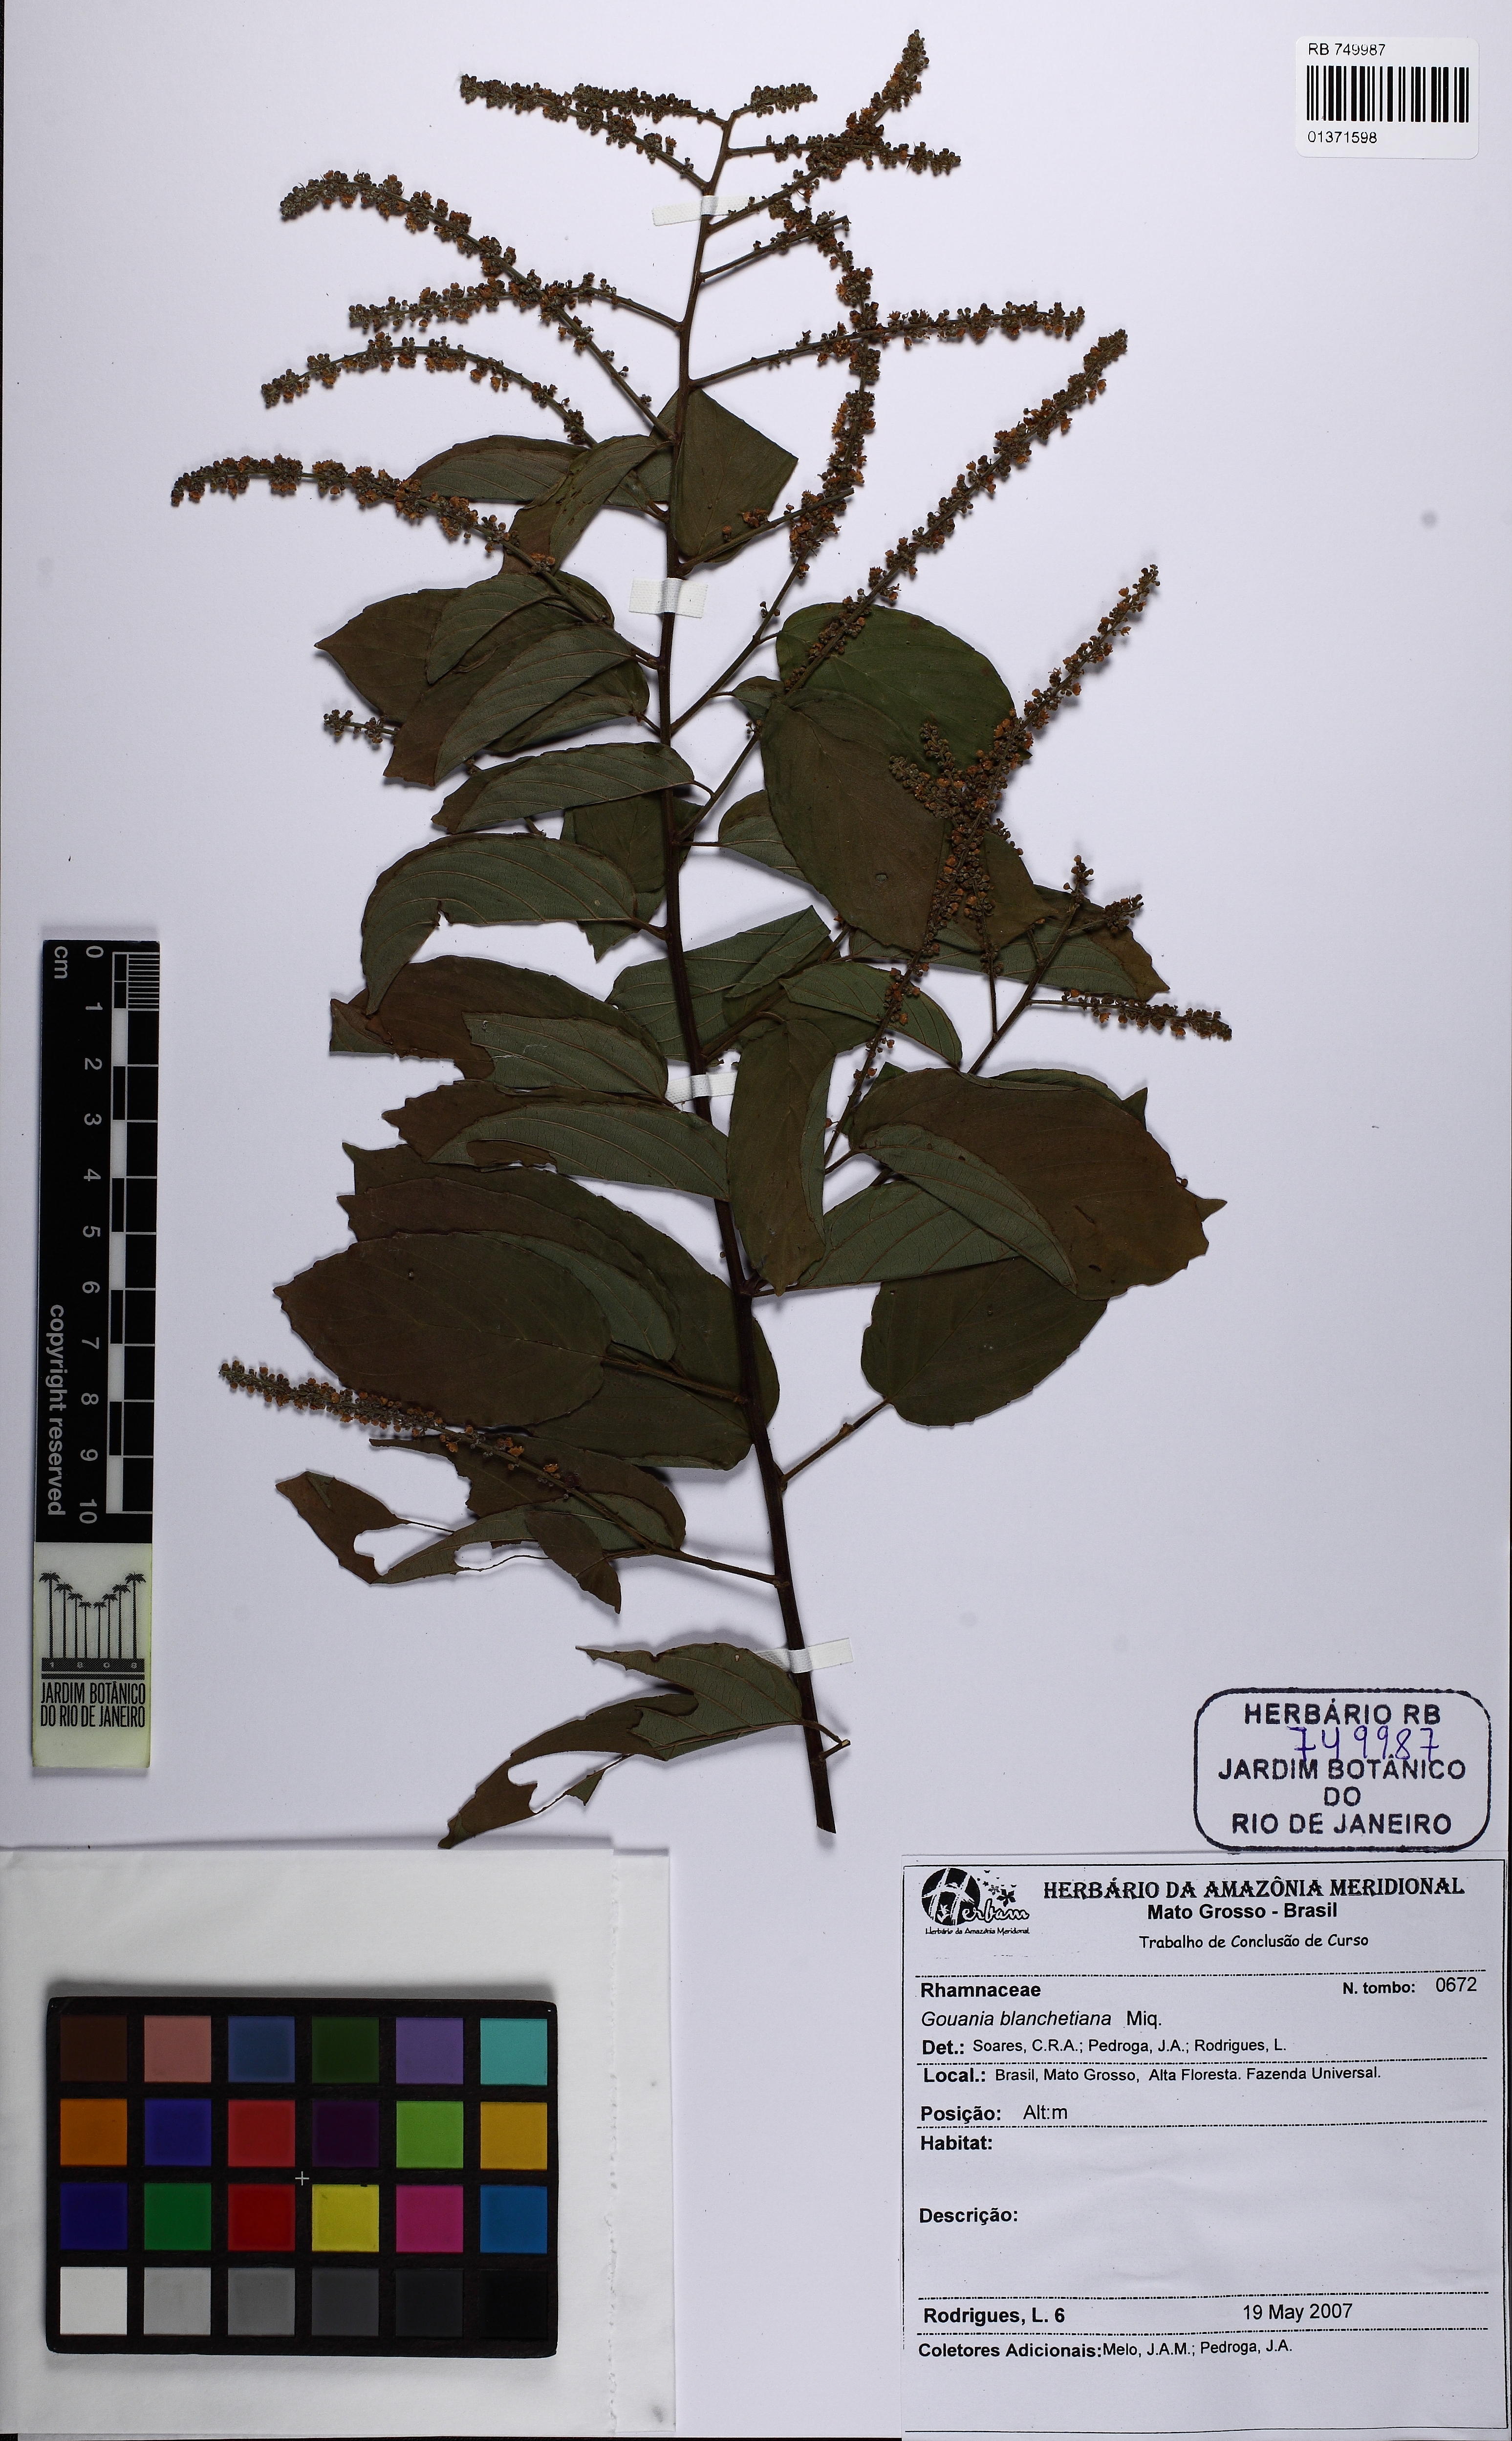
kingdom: Plantae
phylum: Tracheophyta
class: Magnoliopsida
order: Rosales
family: Rhamnaceae
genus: Gouania
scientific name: Gouania blanchetiana
